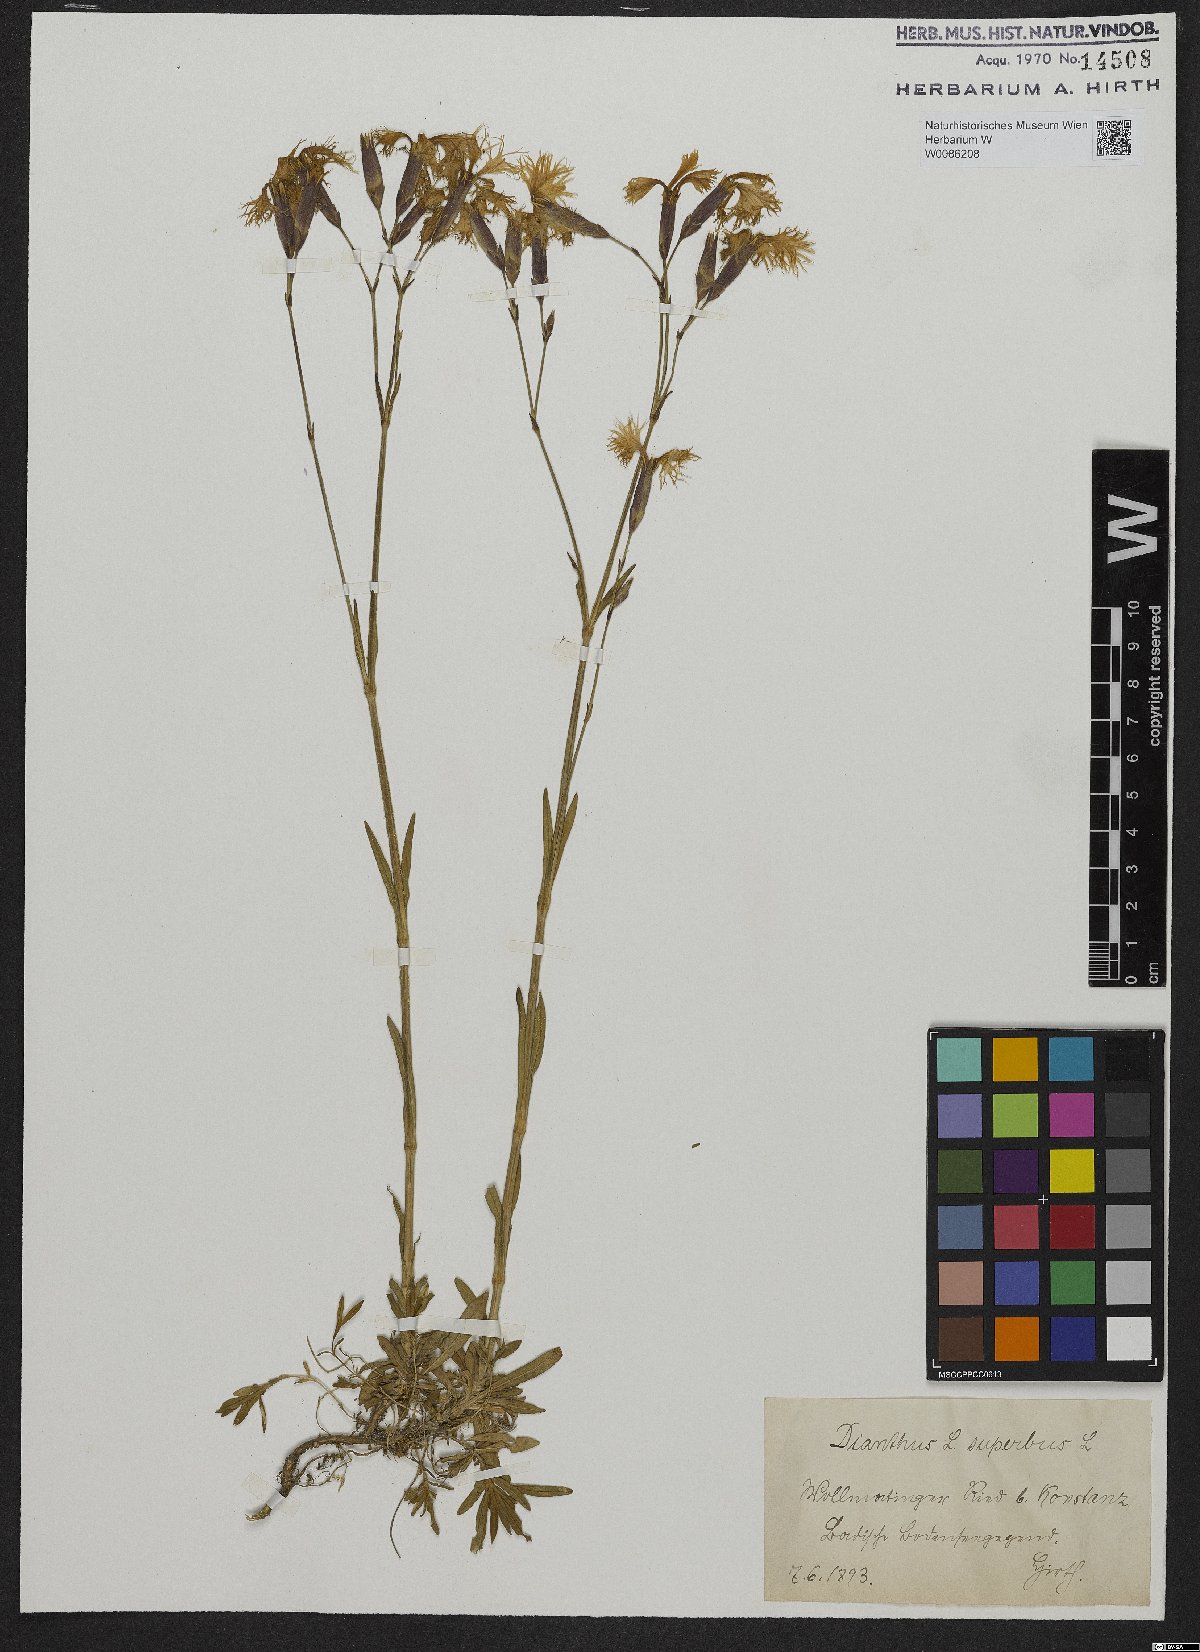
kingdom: Plantae
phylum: Tracheophyta
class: Magnoliopsida
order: Caryophyllales
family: Caryophyllaceae
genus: Dianthus
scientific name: Dianthus superbus
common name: Fringed pink
